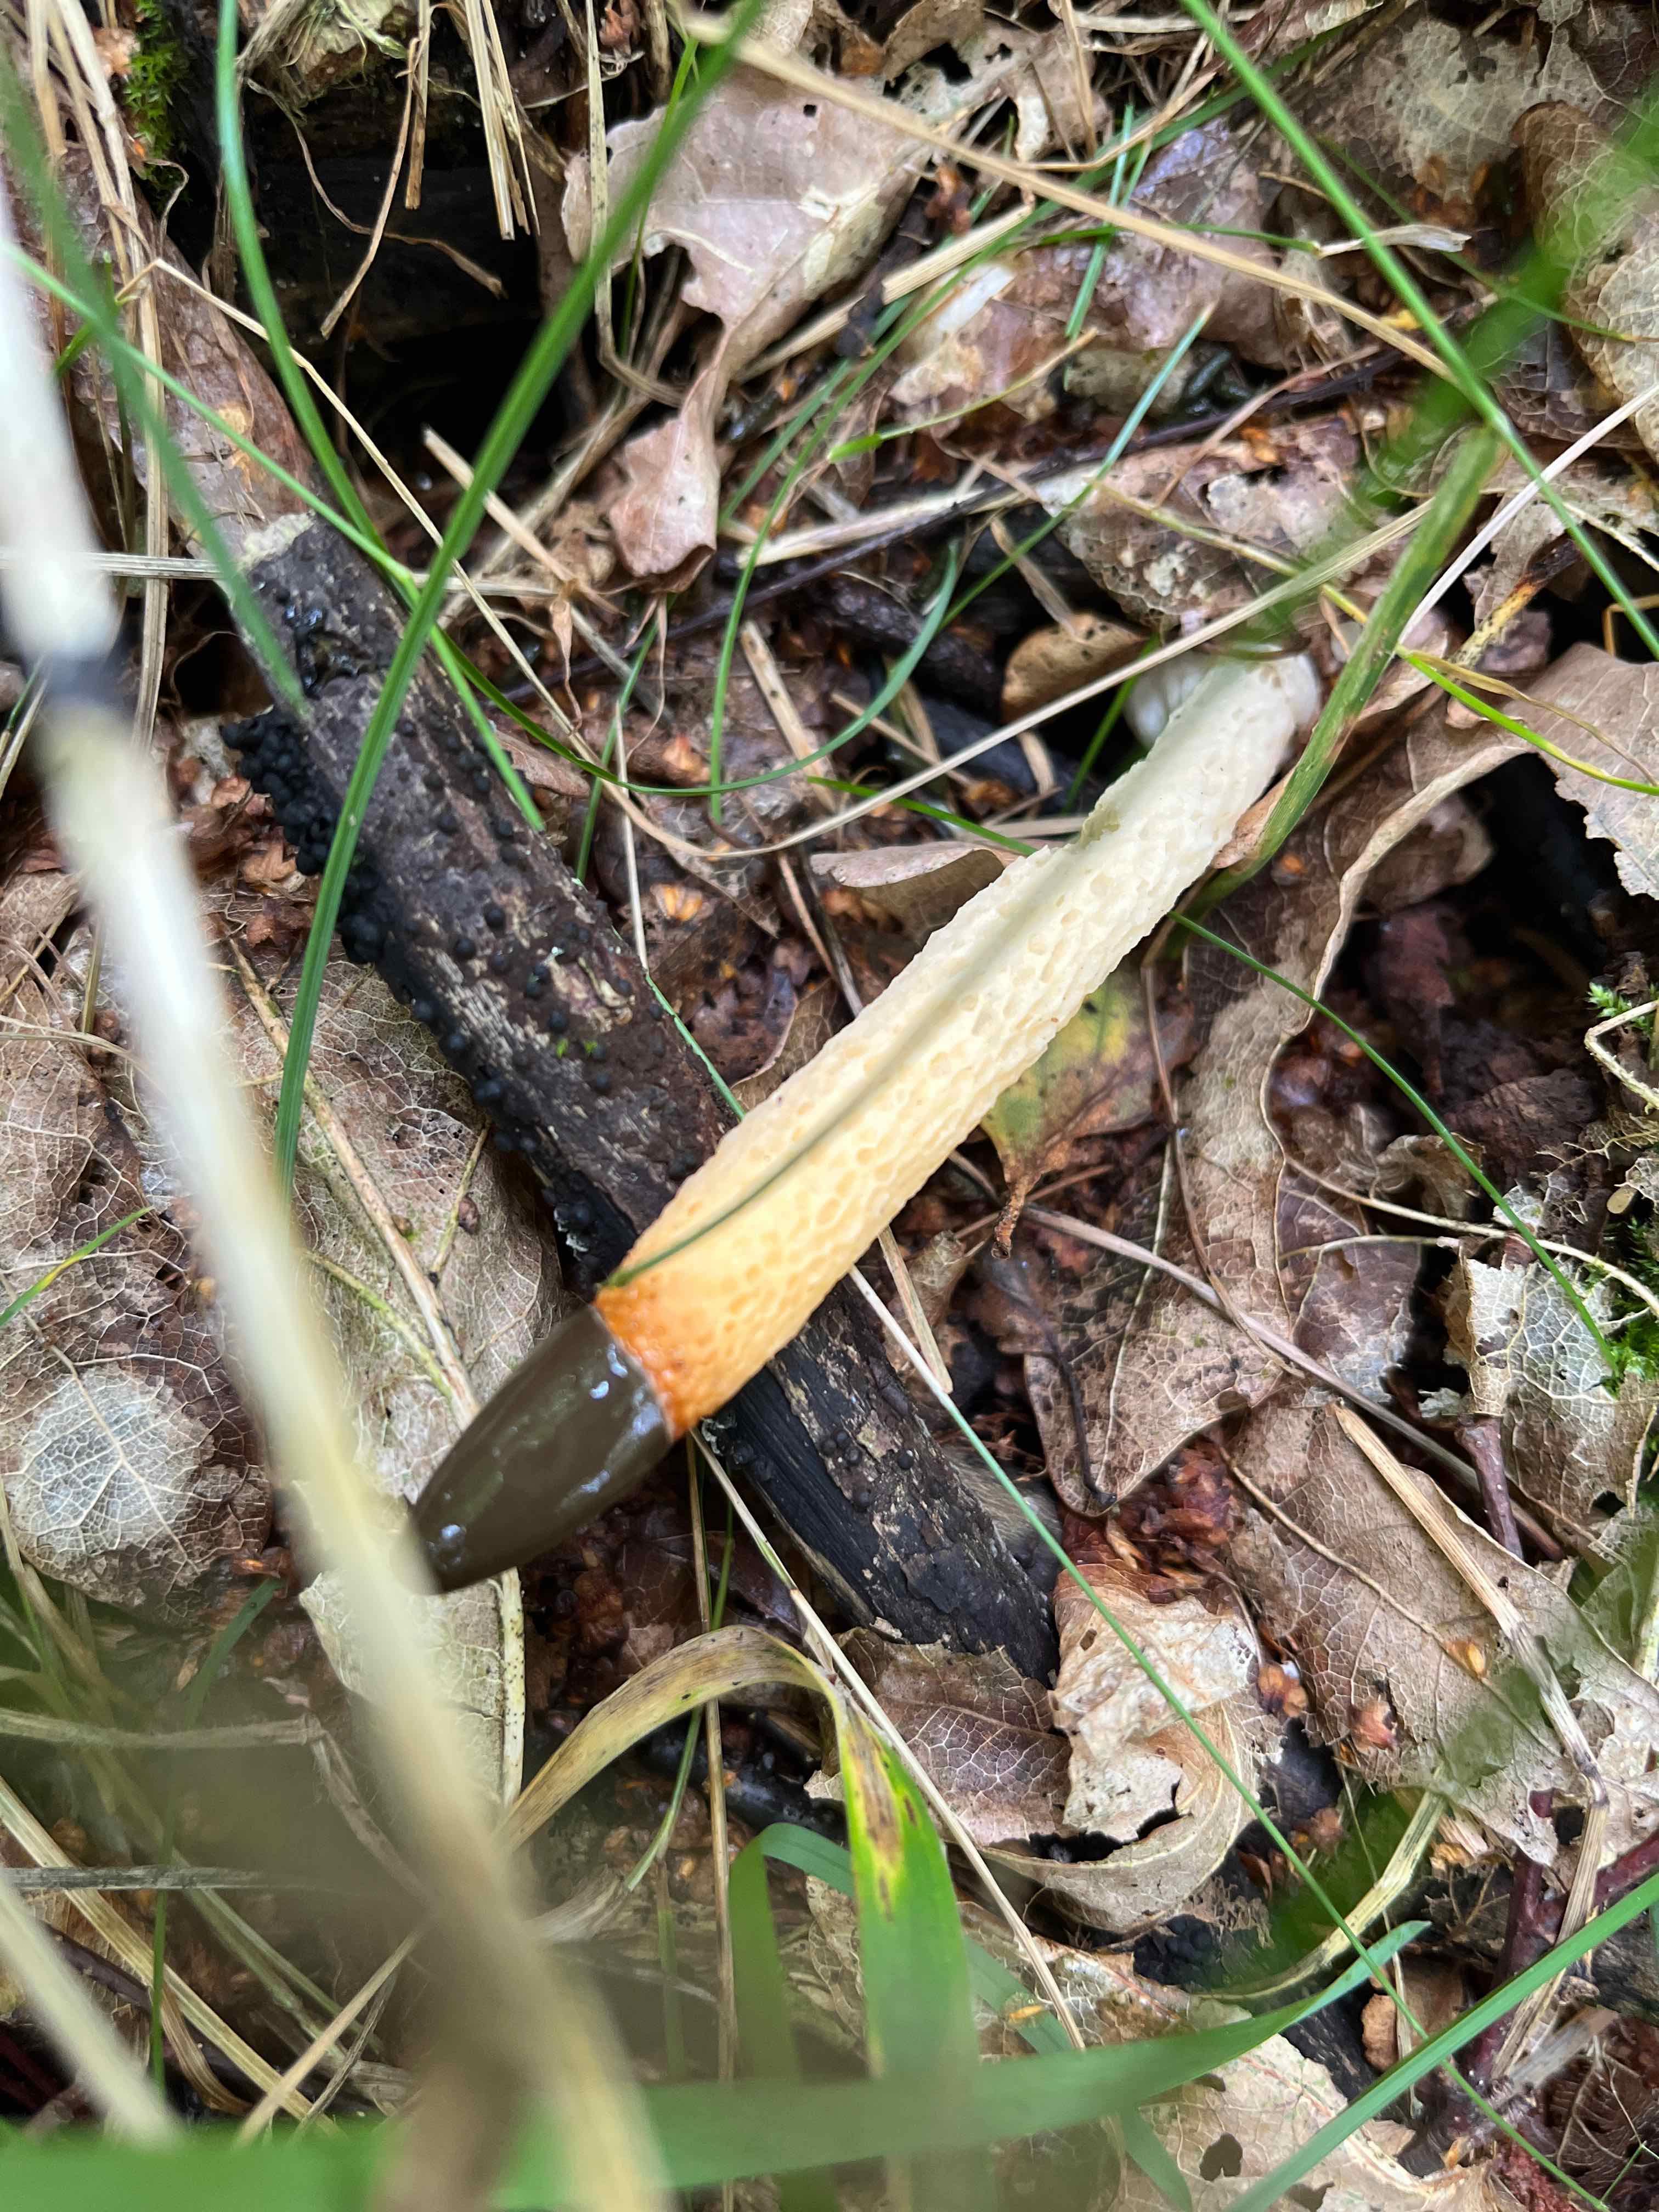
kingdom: Fungi
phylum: Basidiomycota
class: Agaricomycetes
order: Phallales
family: Phallaceae
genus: Mutinus
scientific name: Mutinus caninus
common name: hunde-stinksvamp
